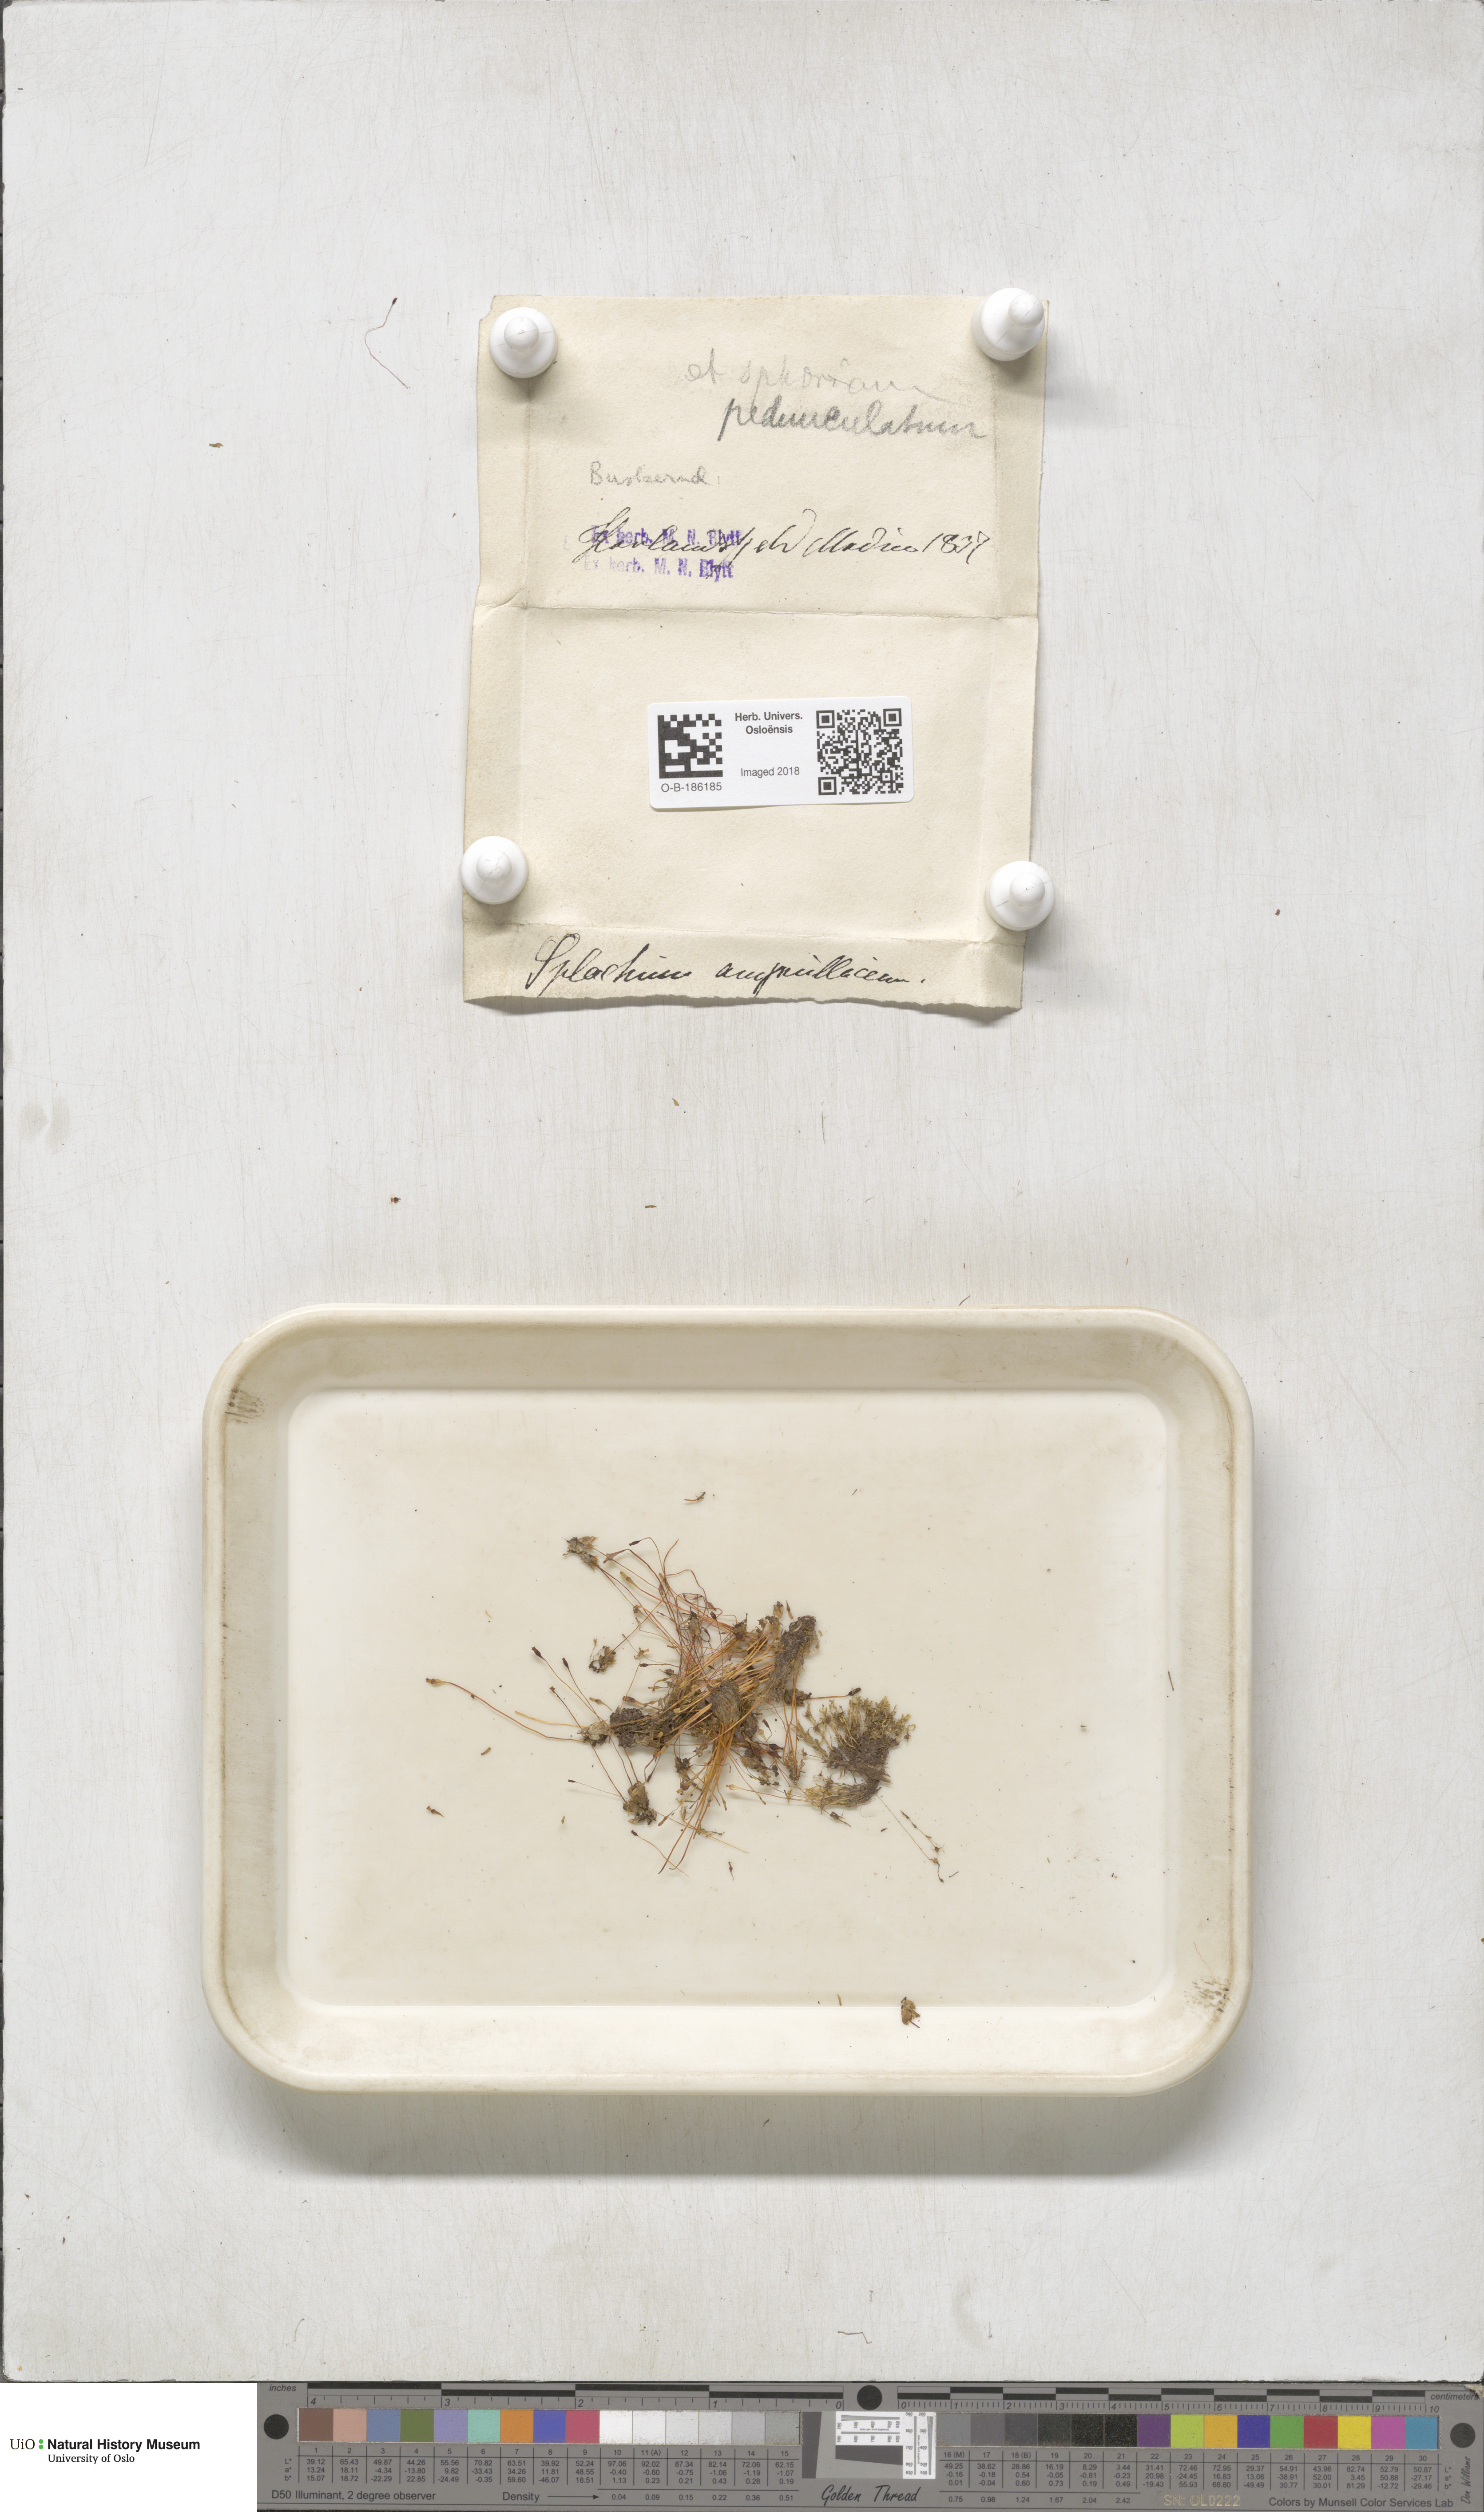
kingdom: Plantae
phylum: Bryophyta
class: Bryopsida
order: Splachnales
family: Splachnaceae
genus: Splachnum
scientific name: Splachnum sphaericum
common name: Round-fruited dung moss
